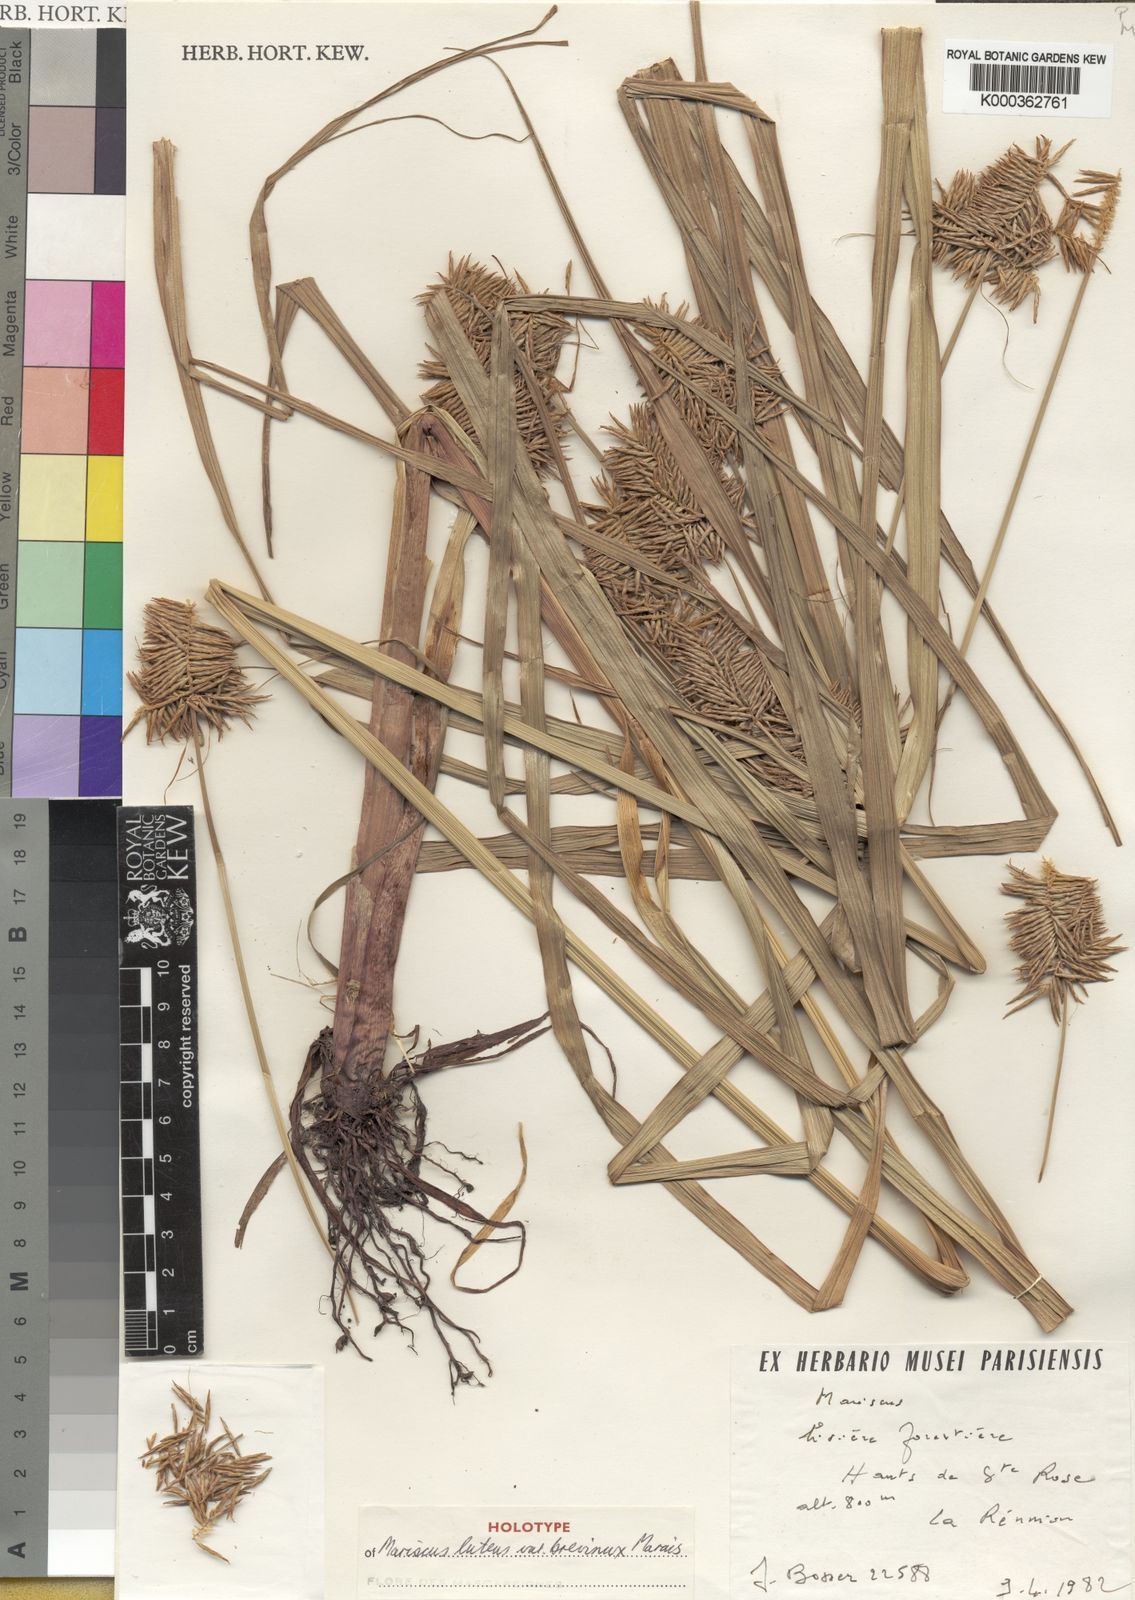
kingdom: Plantae
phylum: Tracheophyta
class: Liliopsida
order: Poales
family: Cyperaceae
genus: Cyperus
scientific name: Cyperus luteus
